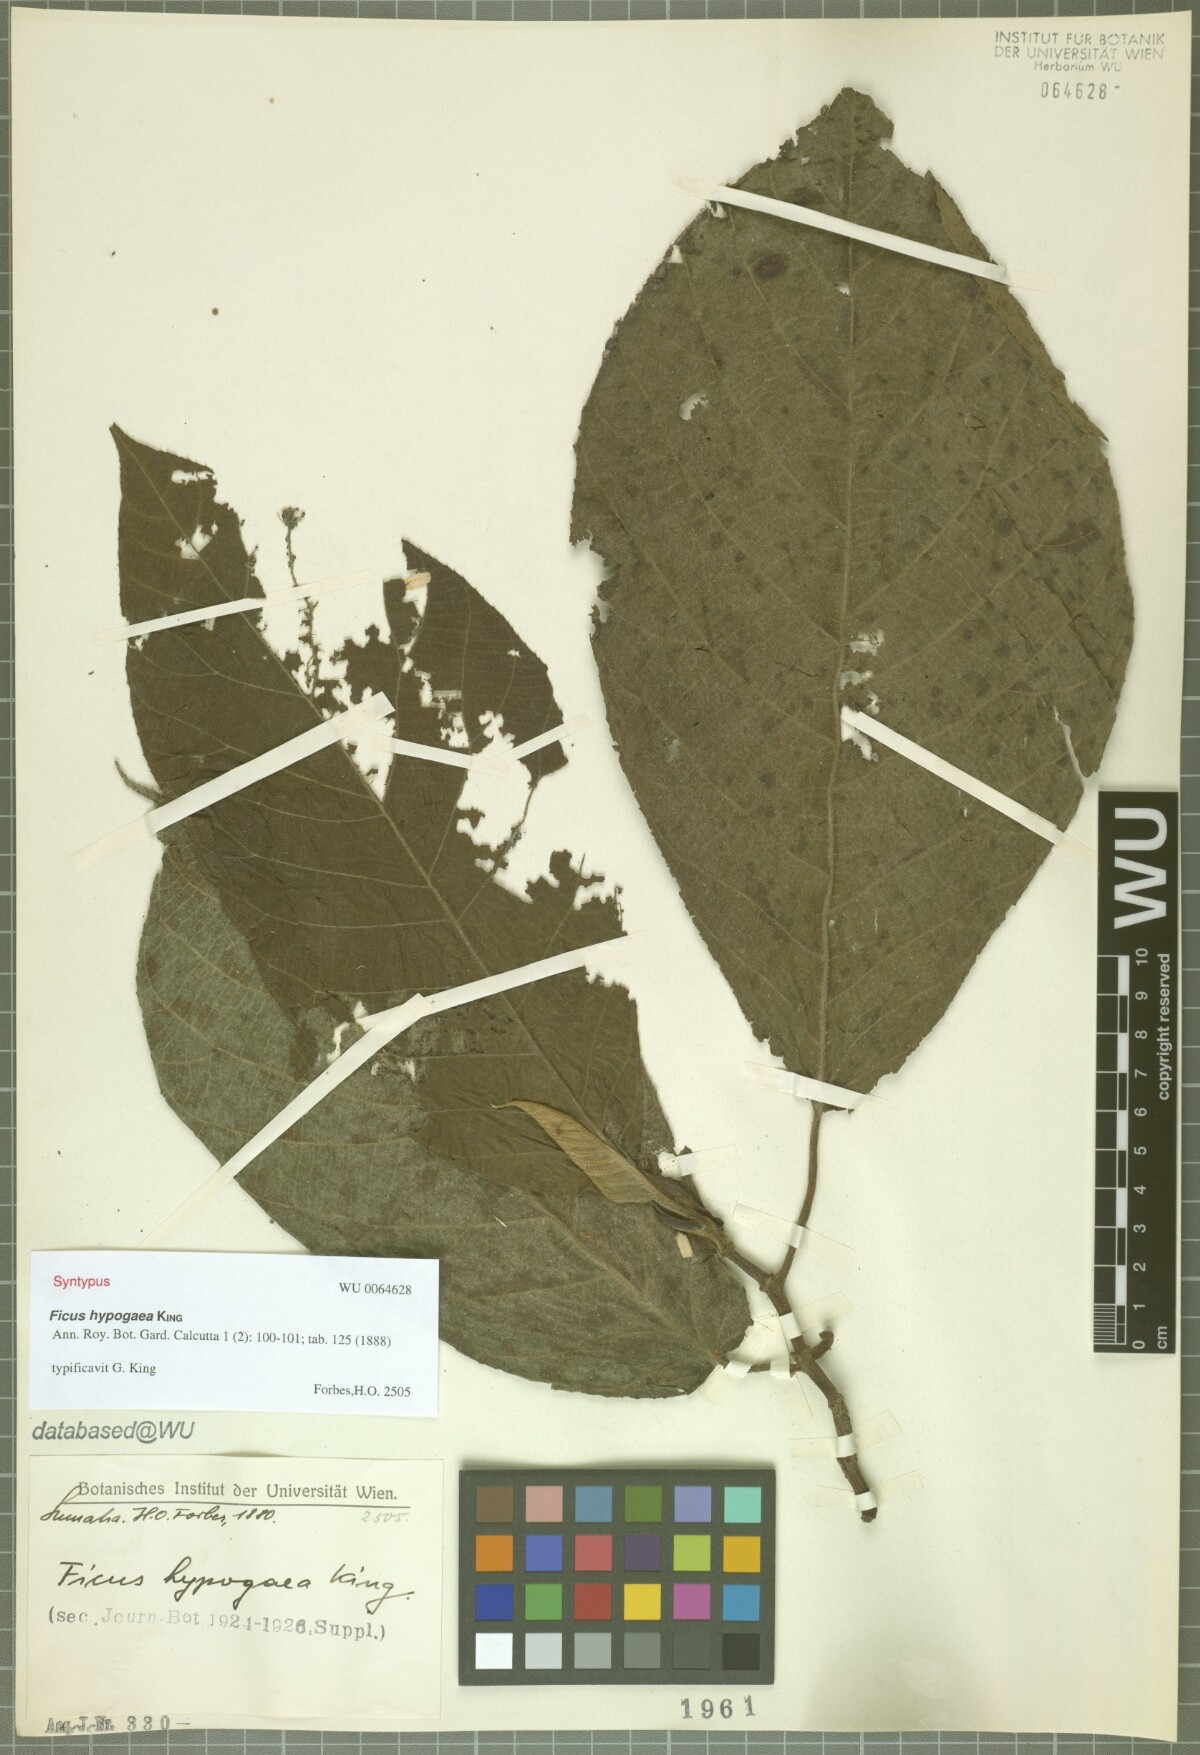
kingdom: Plantae
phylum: Tracheophyta
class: Magnoliopsida
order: Rosales
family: Moraceae
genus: Ficus
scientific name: Ficus hypogaea
